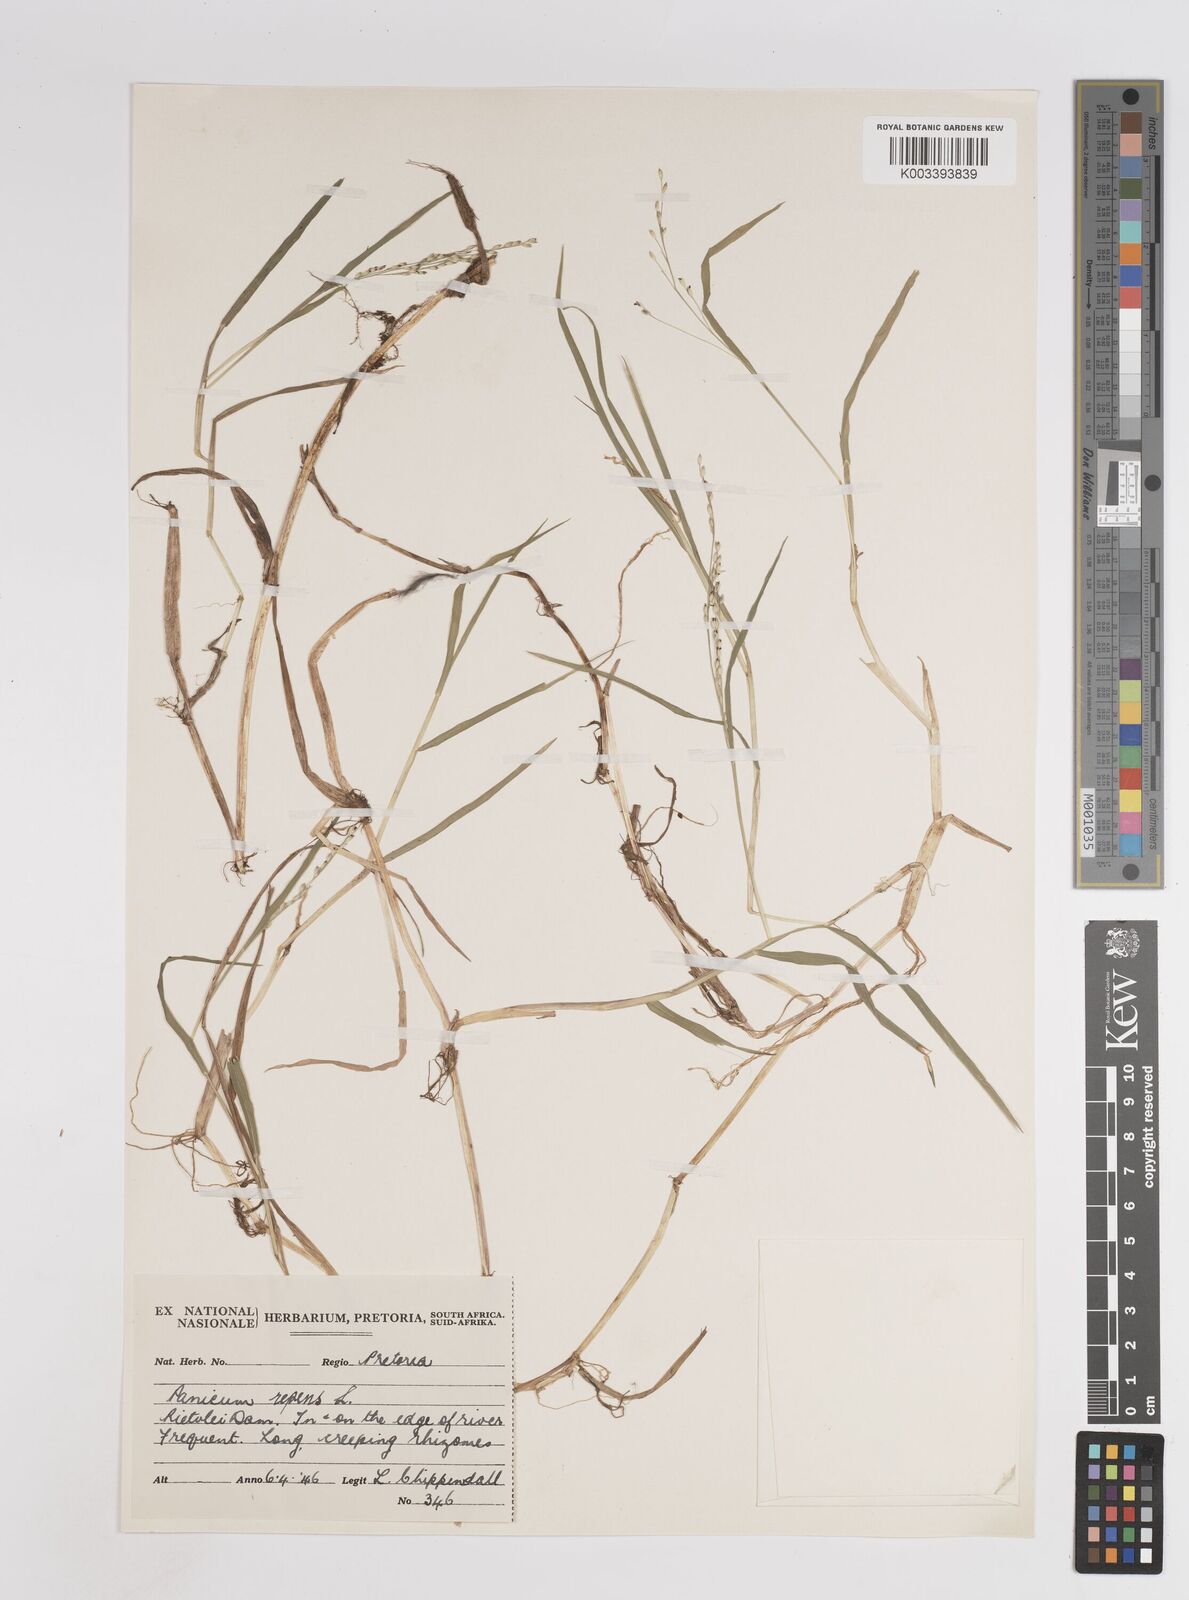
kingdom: Plantae
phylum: Tracheophyta
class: Liliopsida
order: Poales
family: Poaceae
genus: Panicum
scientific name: Panicum hygrocharis
